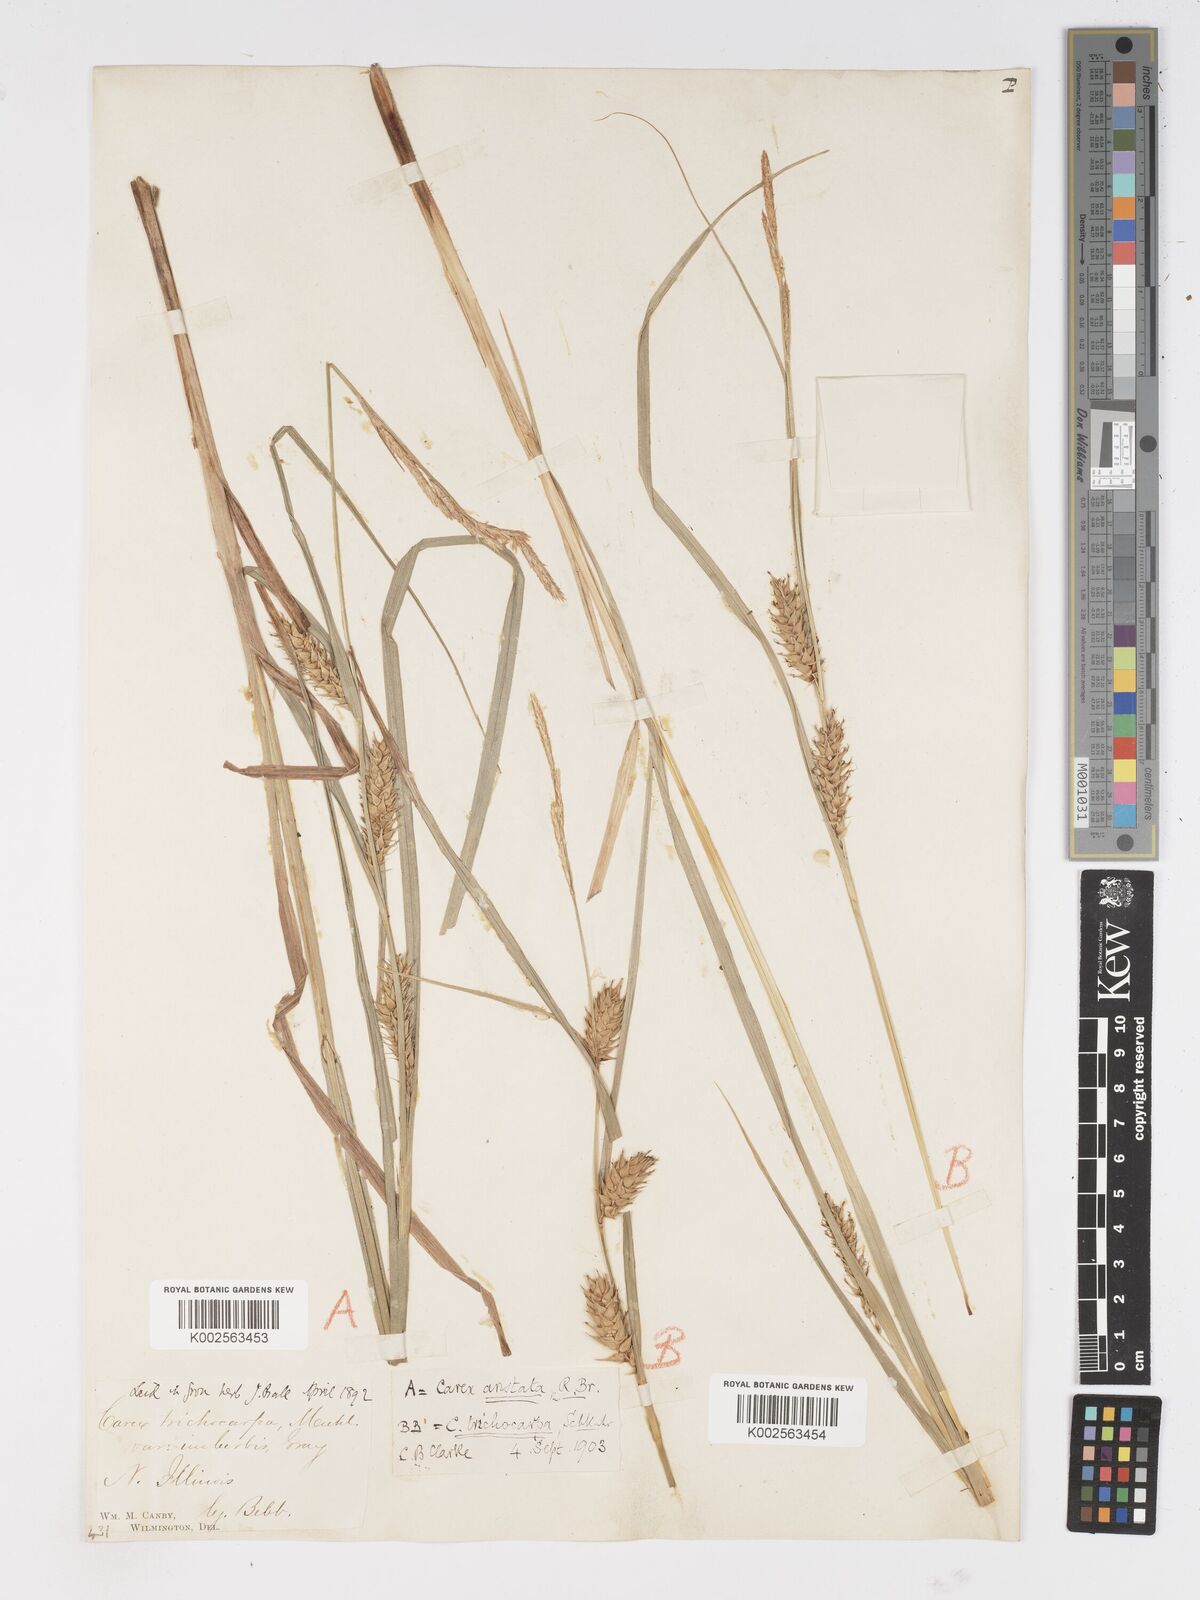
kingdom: Plantae
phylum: Tracheophyta
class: Liliopsida
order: Poales
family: Cyperaceae
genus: Carex
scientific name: Carex trichocarpa
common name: Hairy-fruited lake sedge
